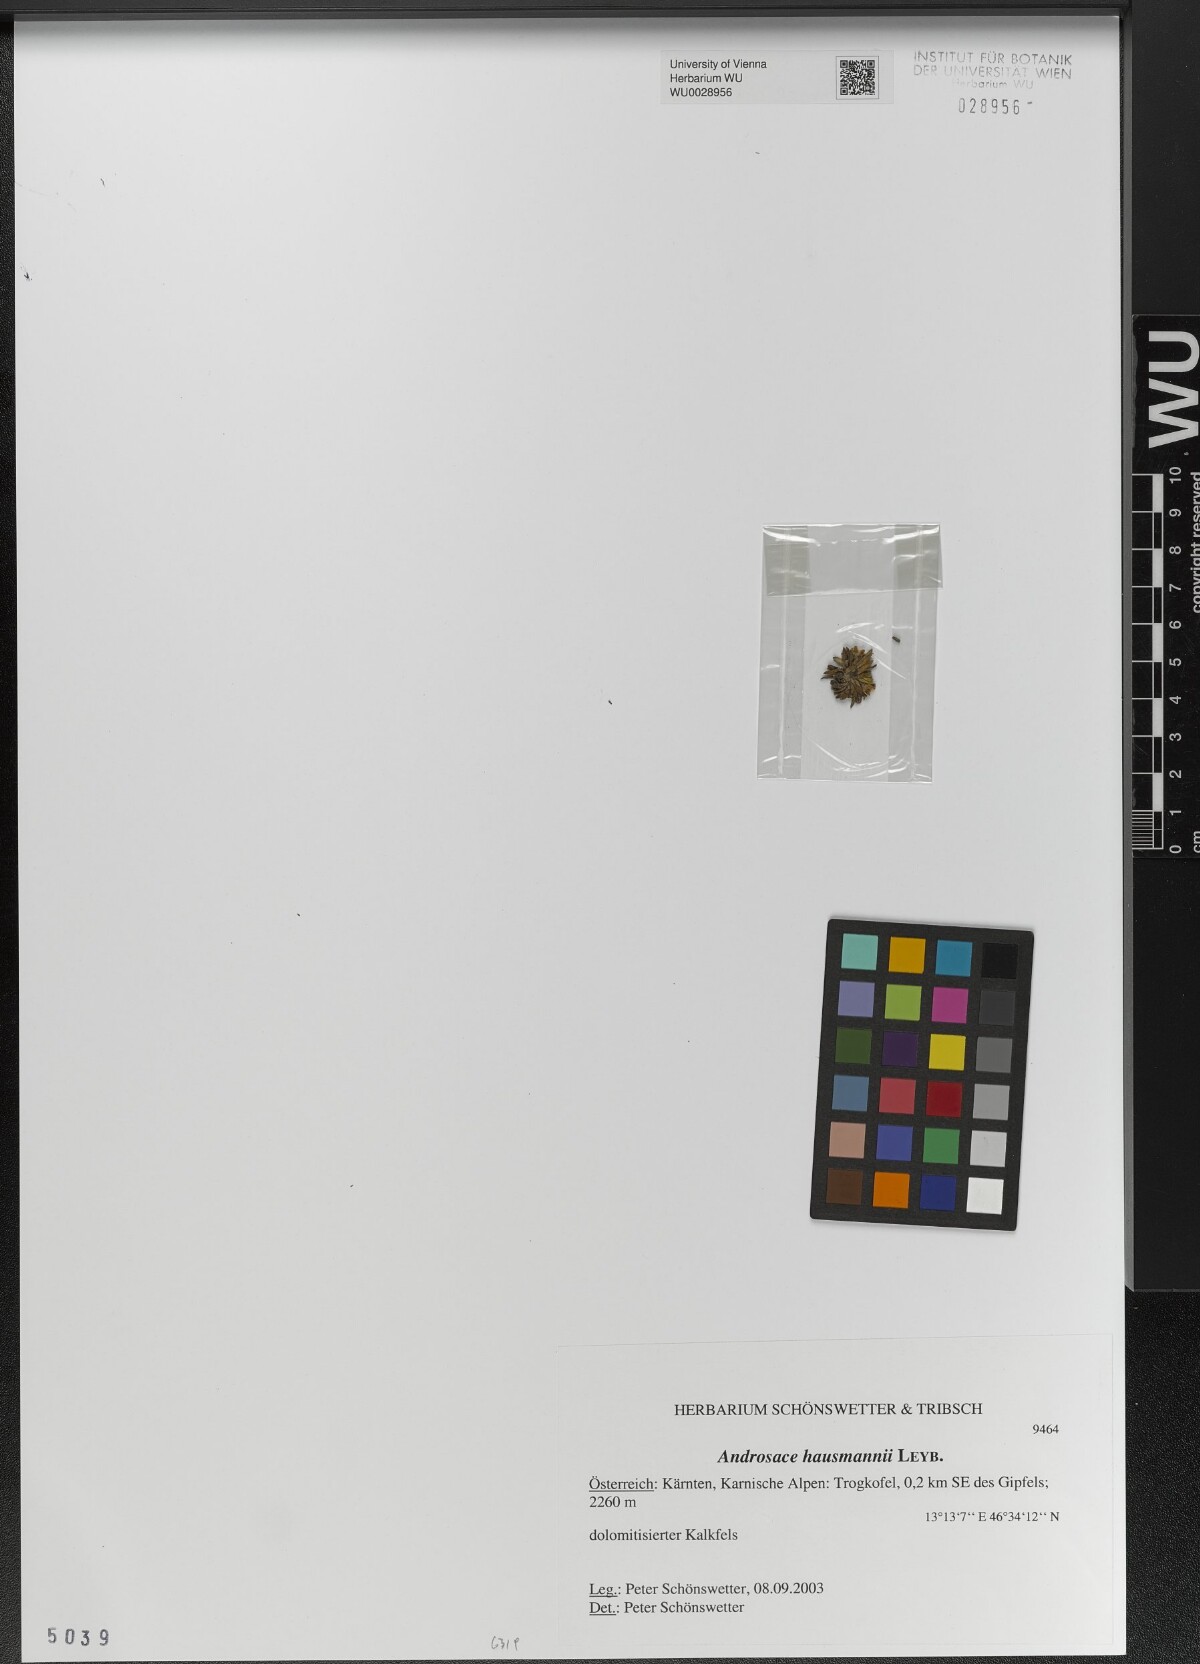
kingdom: Plantae
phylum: Tracheophyta
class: Magnoliopsida
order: Ericales
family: Primulaceae
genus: Androsace
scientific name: Androsace hausmannii
